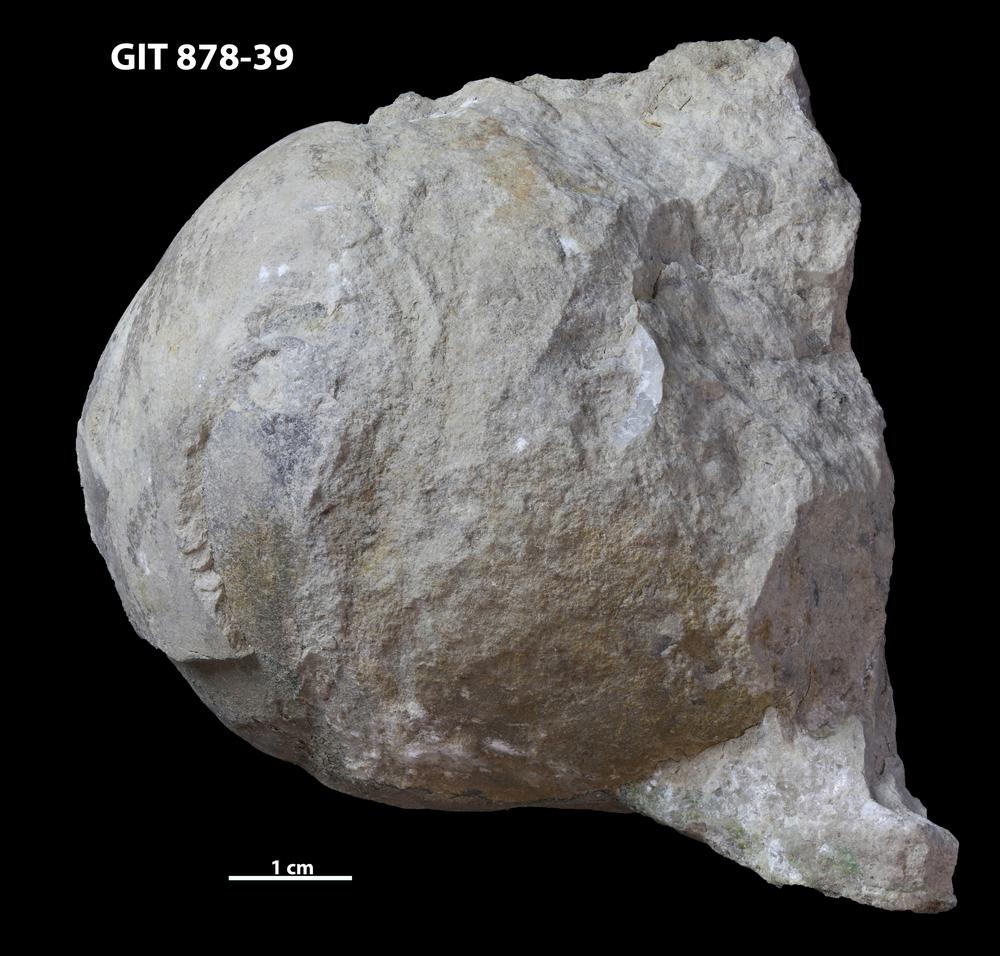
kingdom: Animalia
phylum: Mollusca
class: Cephalopoda
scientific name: Cephalopoda
